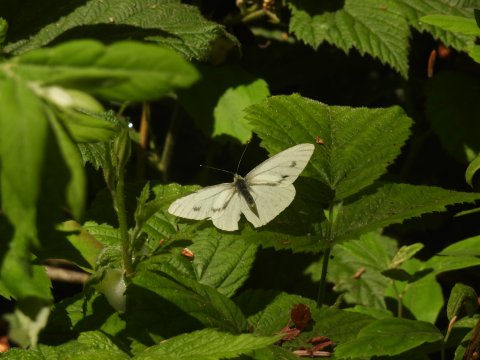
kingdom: Animalia
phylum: Arthropoda
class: Insecta
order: Lepidoptera
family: Pieridae
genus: Pieris
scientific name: Pieris marginalis
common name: Margined White
